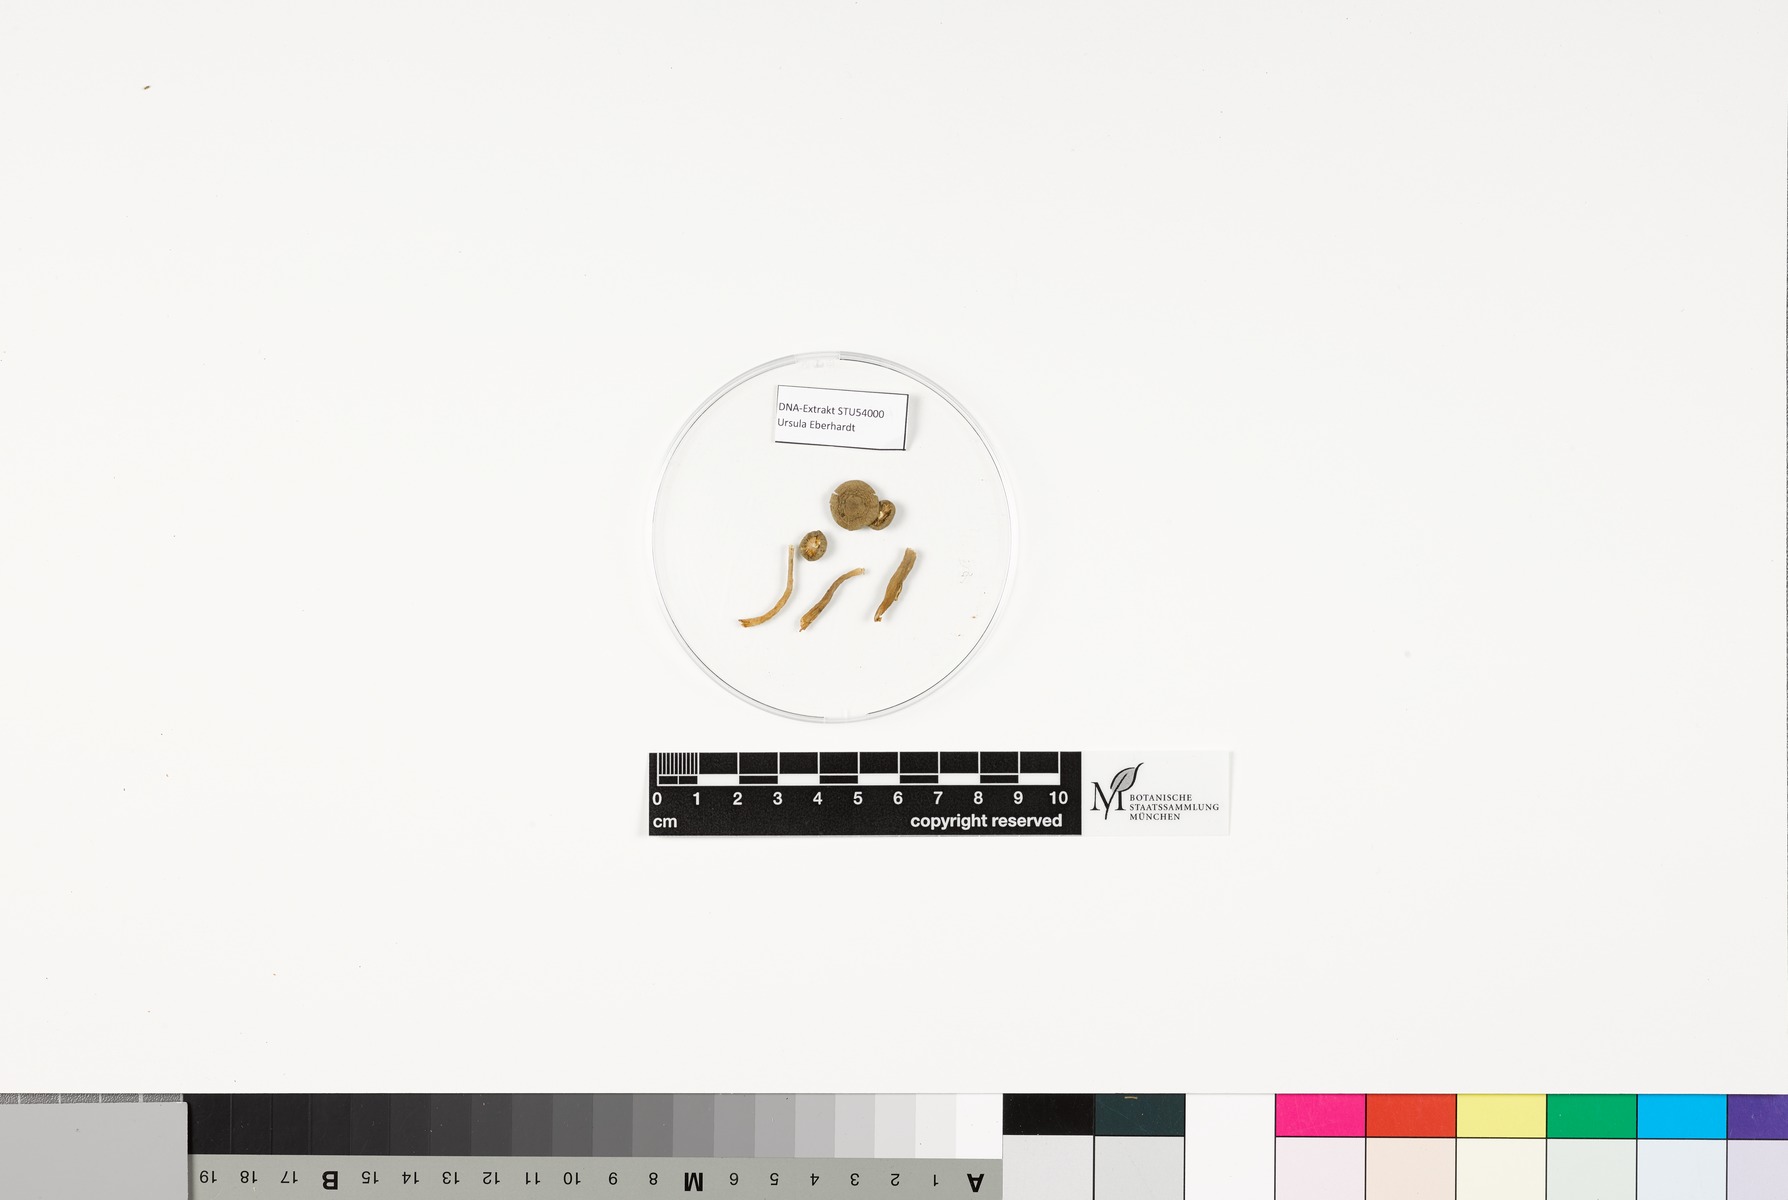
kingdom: Fungi
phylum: Basidiomycota
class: Agaricomycetes
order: Russulales
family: Russulaceae
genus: Lactarius
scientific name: Lactarius glyciosmus
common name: Coconut milkcap
